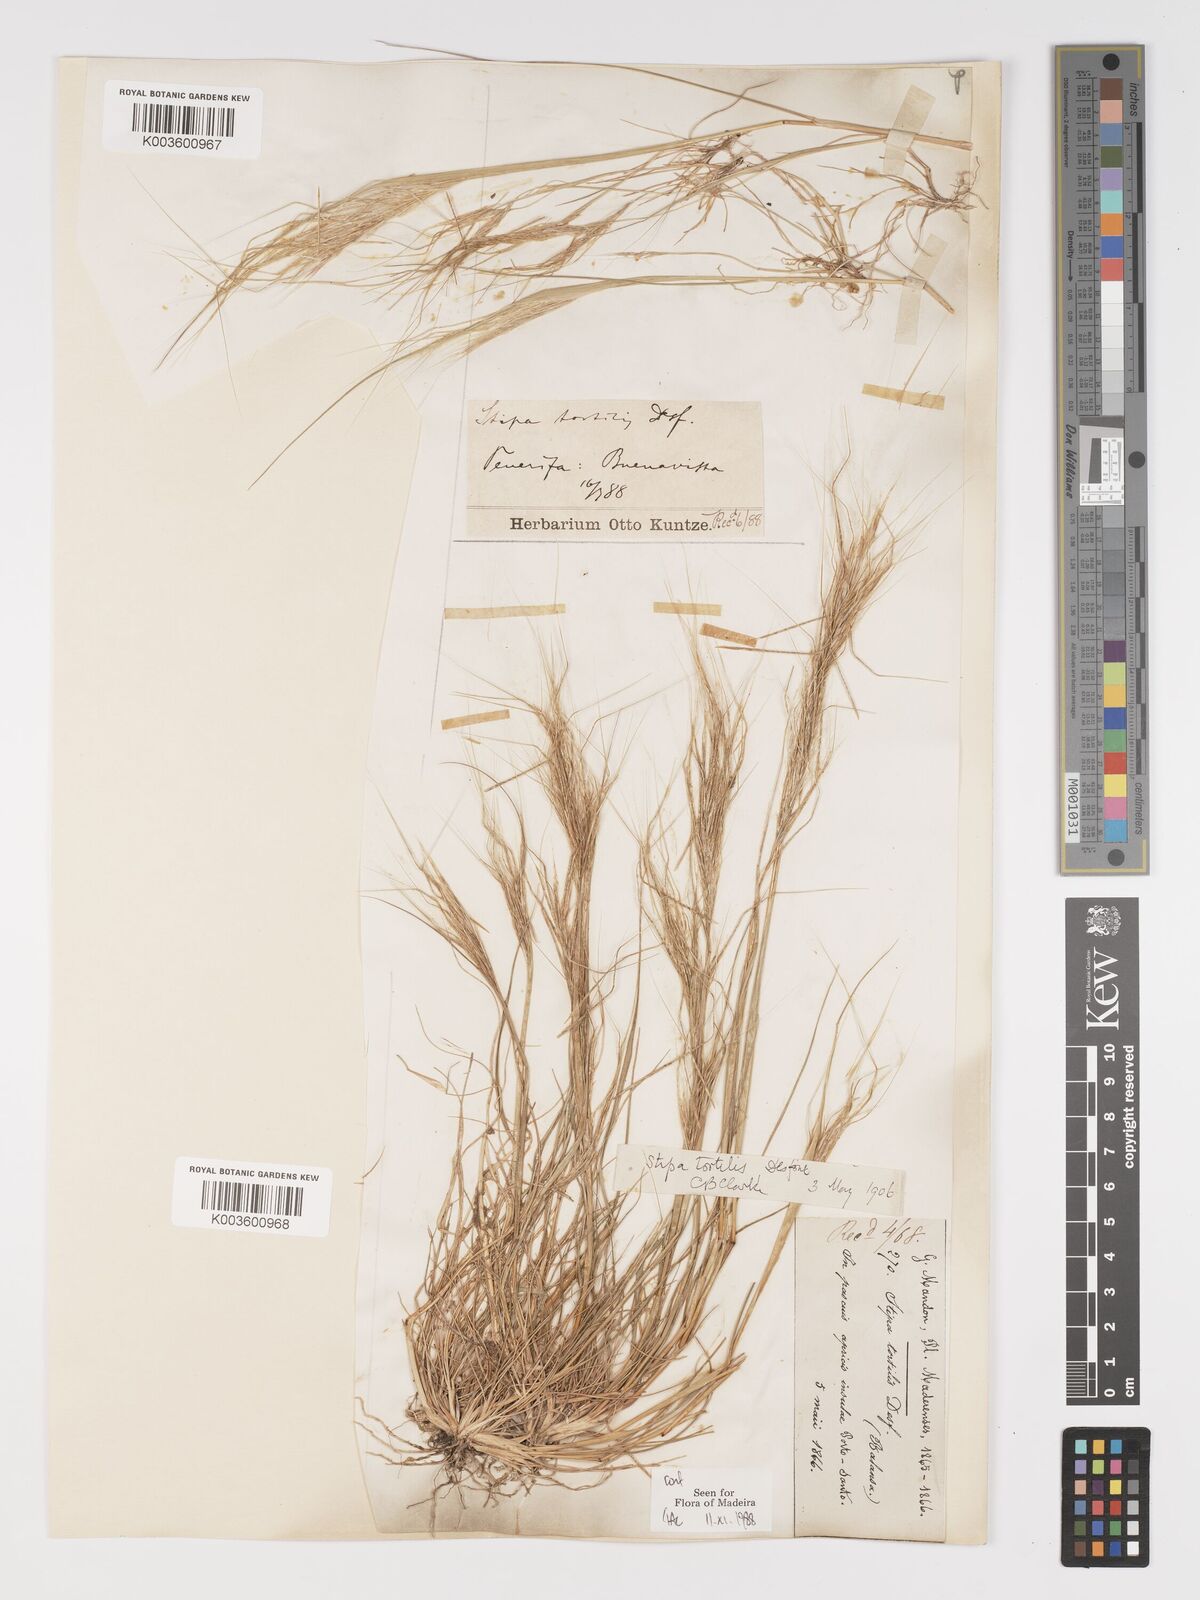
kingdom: Plantae
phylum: Tracheophyta
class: Liliopsida
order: Poales
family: Poaceae
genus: Stipellula
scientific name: Stipellula capensis
